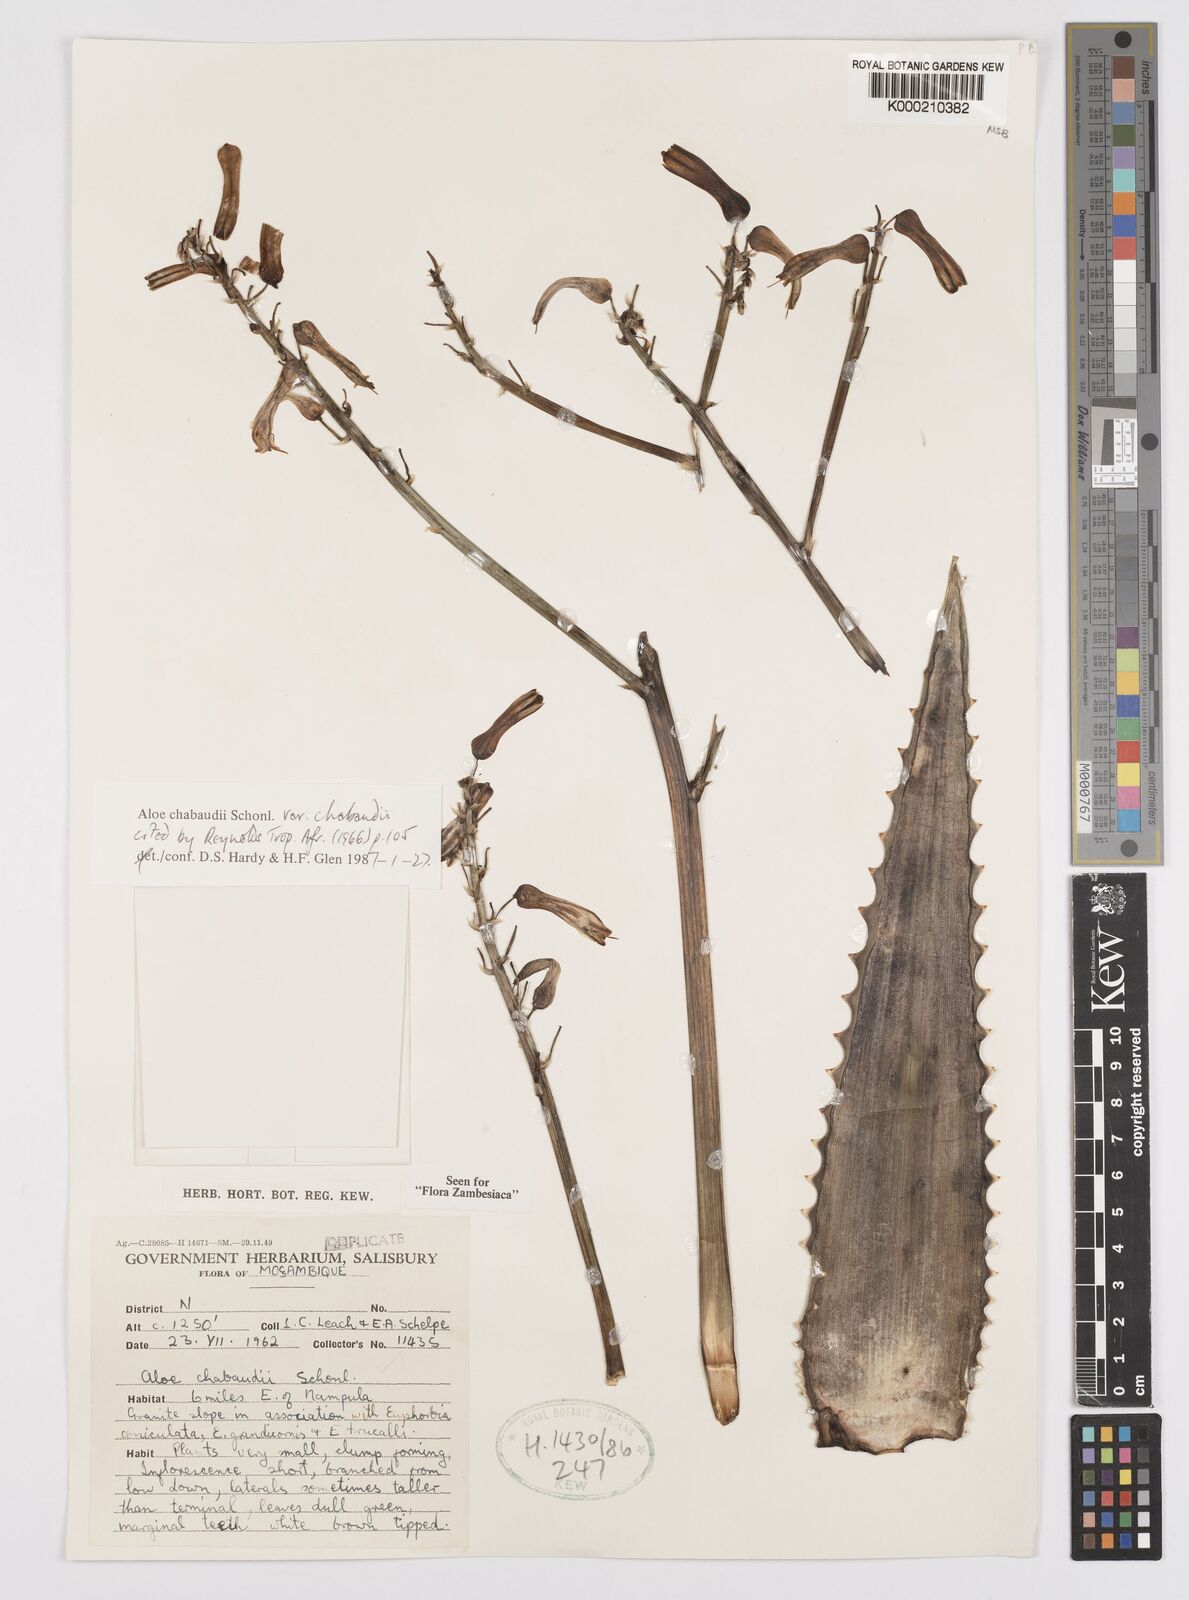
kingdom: Plantae
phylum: Tracheophyta
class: Liliopsida
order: Asparagales
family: Asphodelaceae
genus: Aloe
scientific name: Aloe chabaudii
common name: Chabaud's aloe
